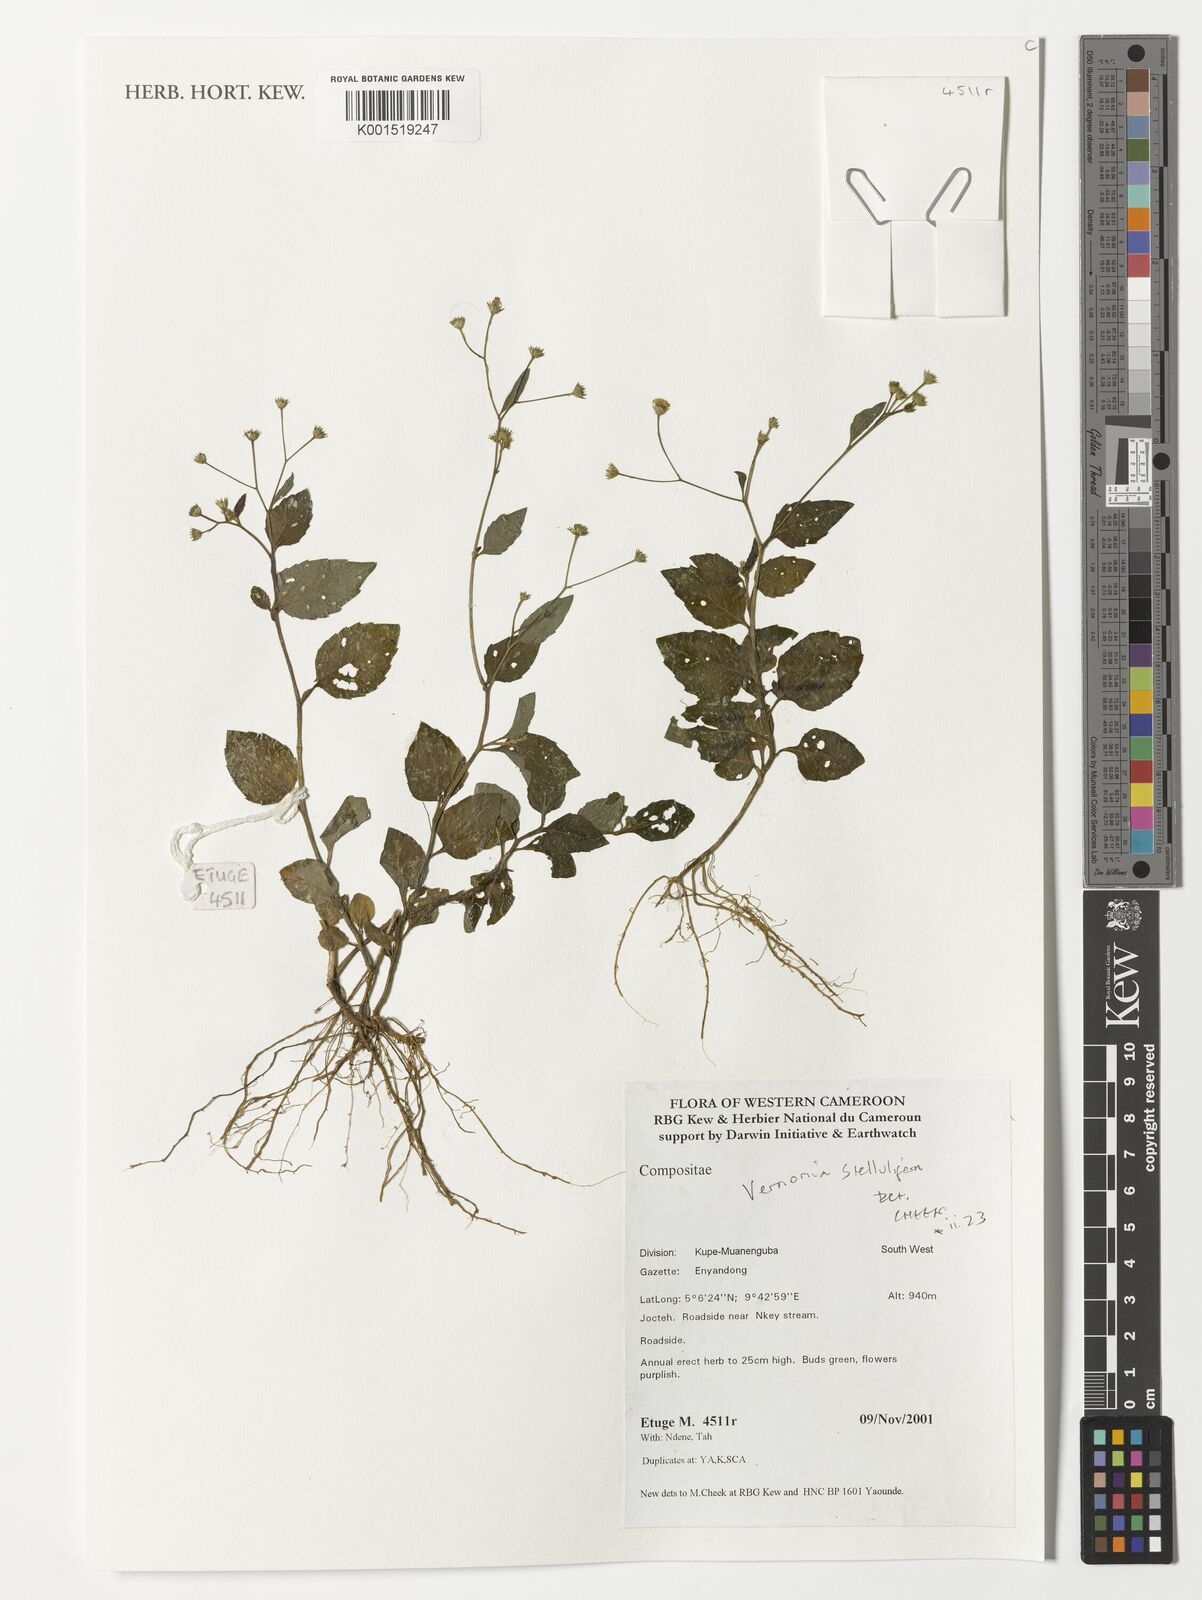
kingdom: Plantae
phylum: Tracheophyta
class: Magnoliopsida
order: Asterales
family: Asteraceae
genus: Cyanthillium
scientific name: Cyanthillium stelluliferum
